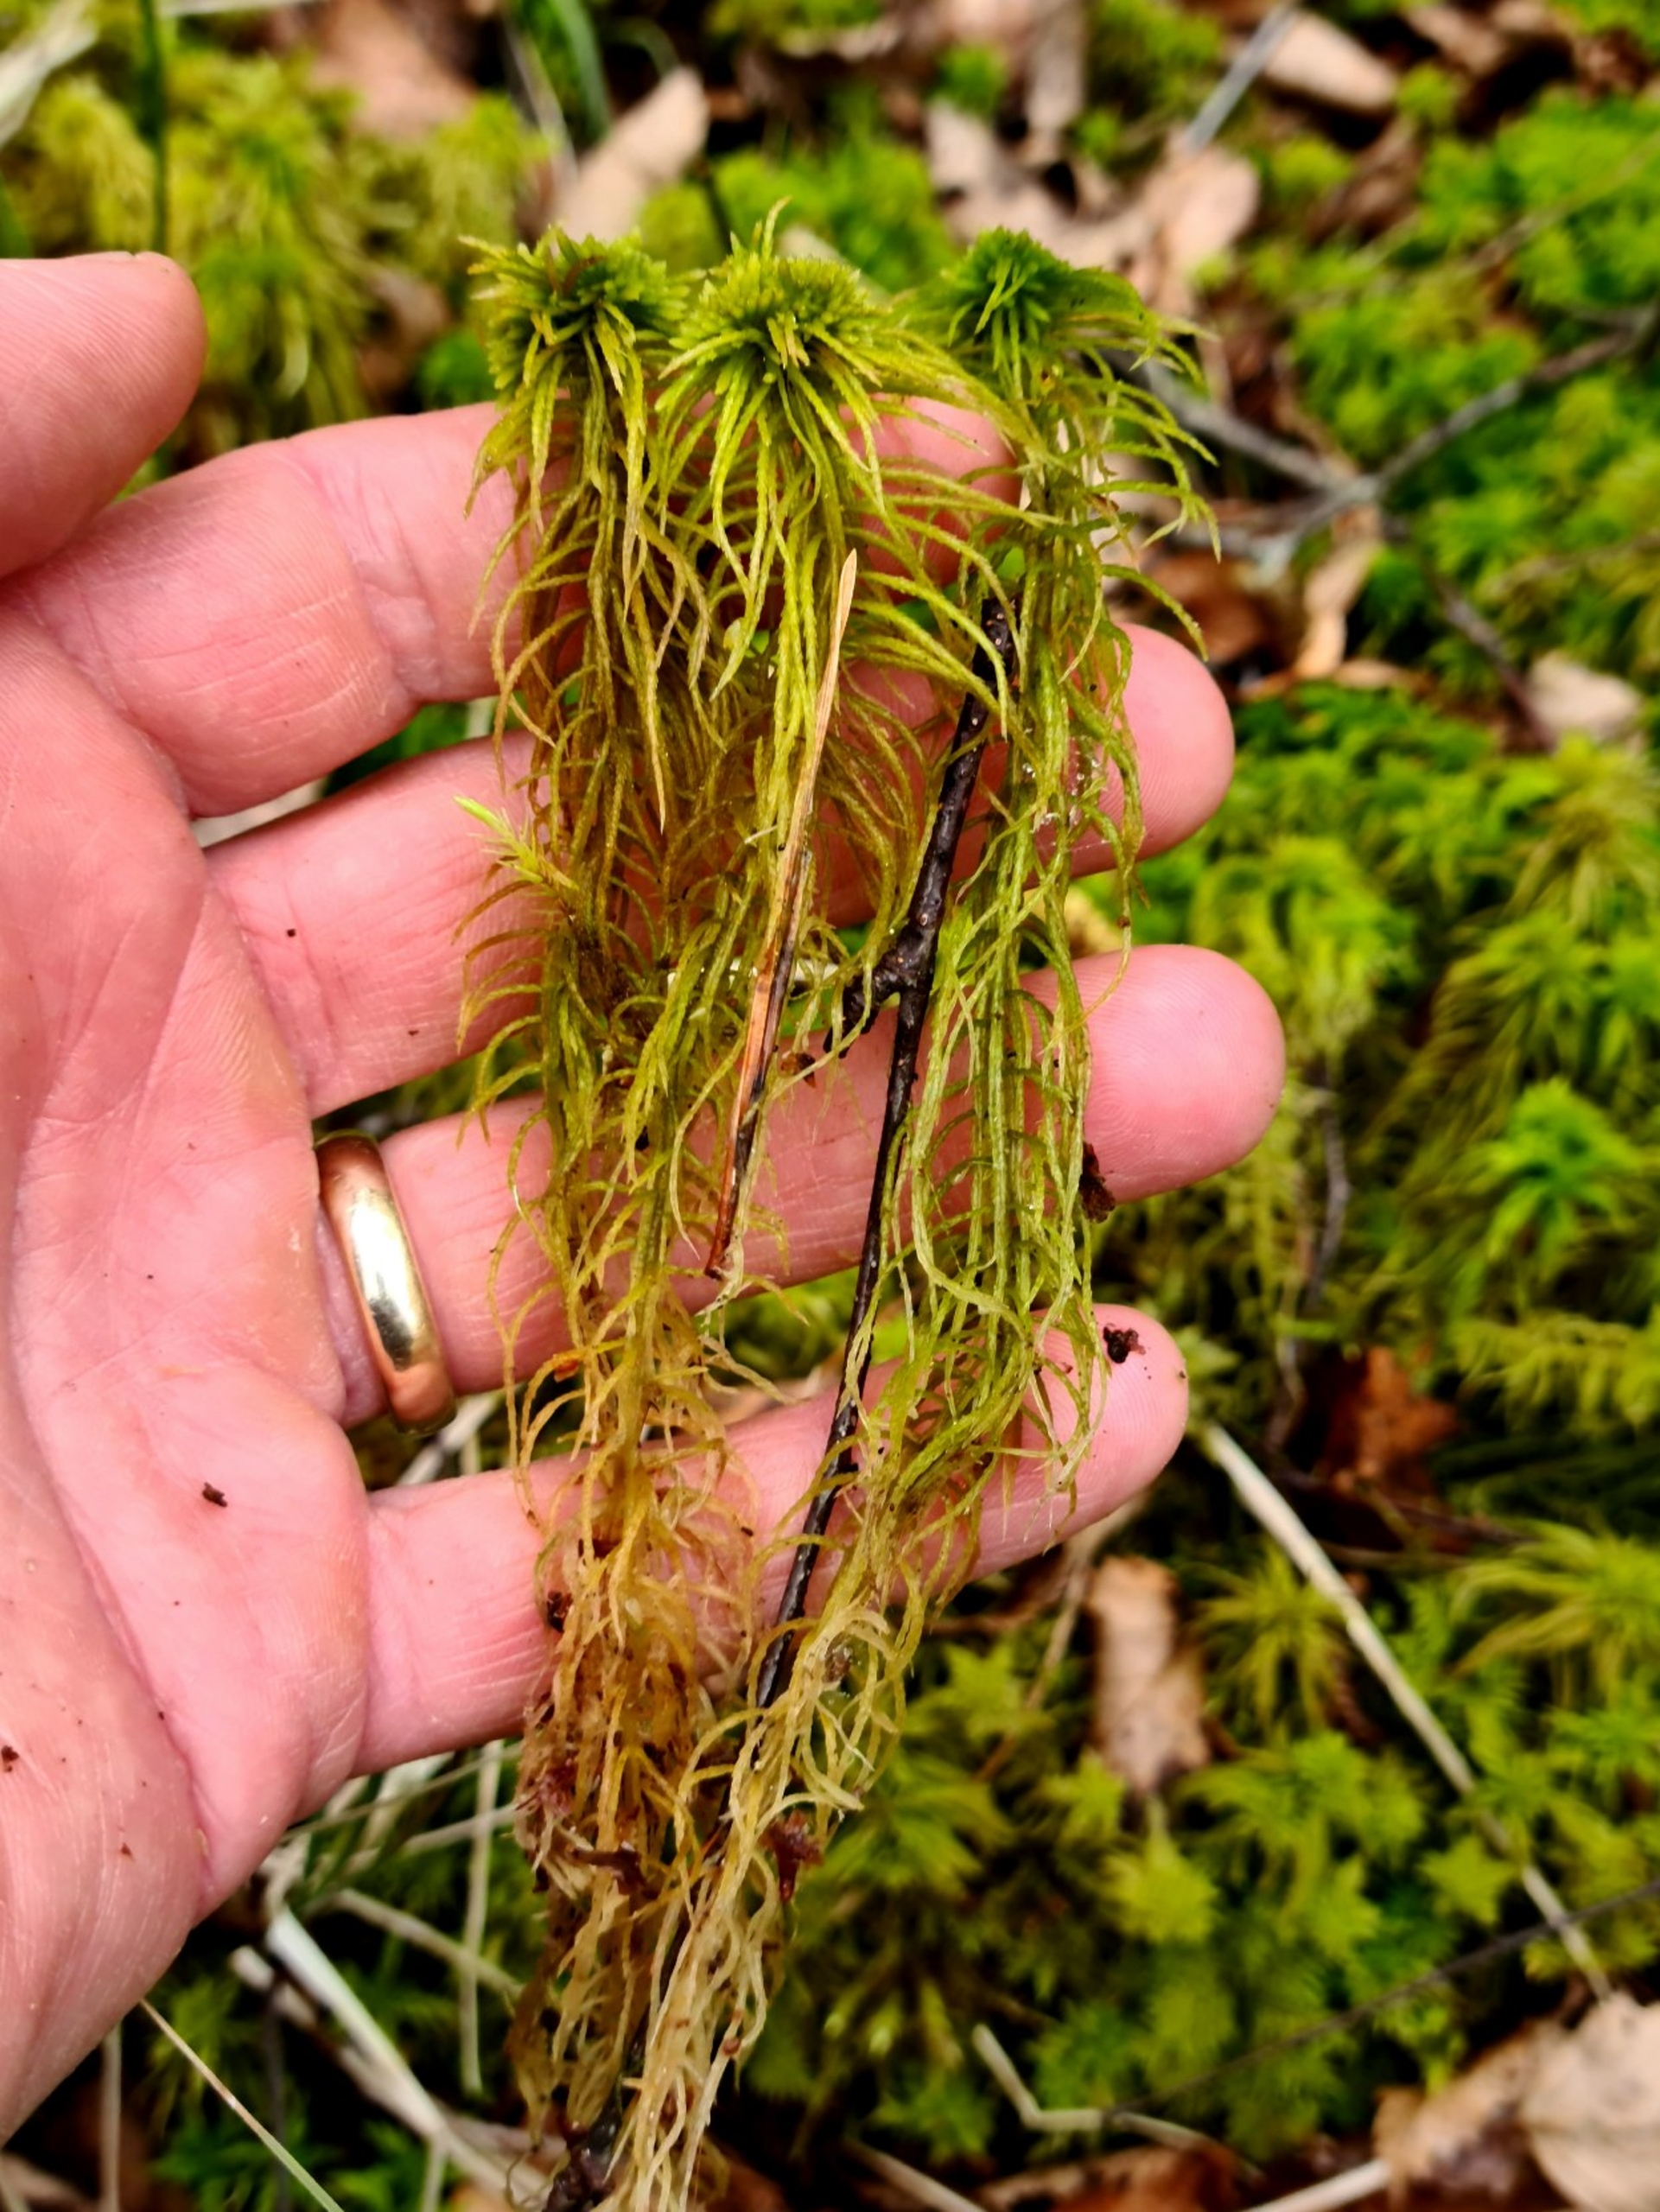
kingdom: Plantae
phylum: Bryophyta
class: Sphagnopsida
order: Sphagnales
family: Sphagnaceae
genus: Sphagnum
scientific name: Sphagnum
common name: Tørvemosslægten
